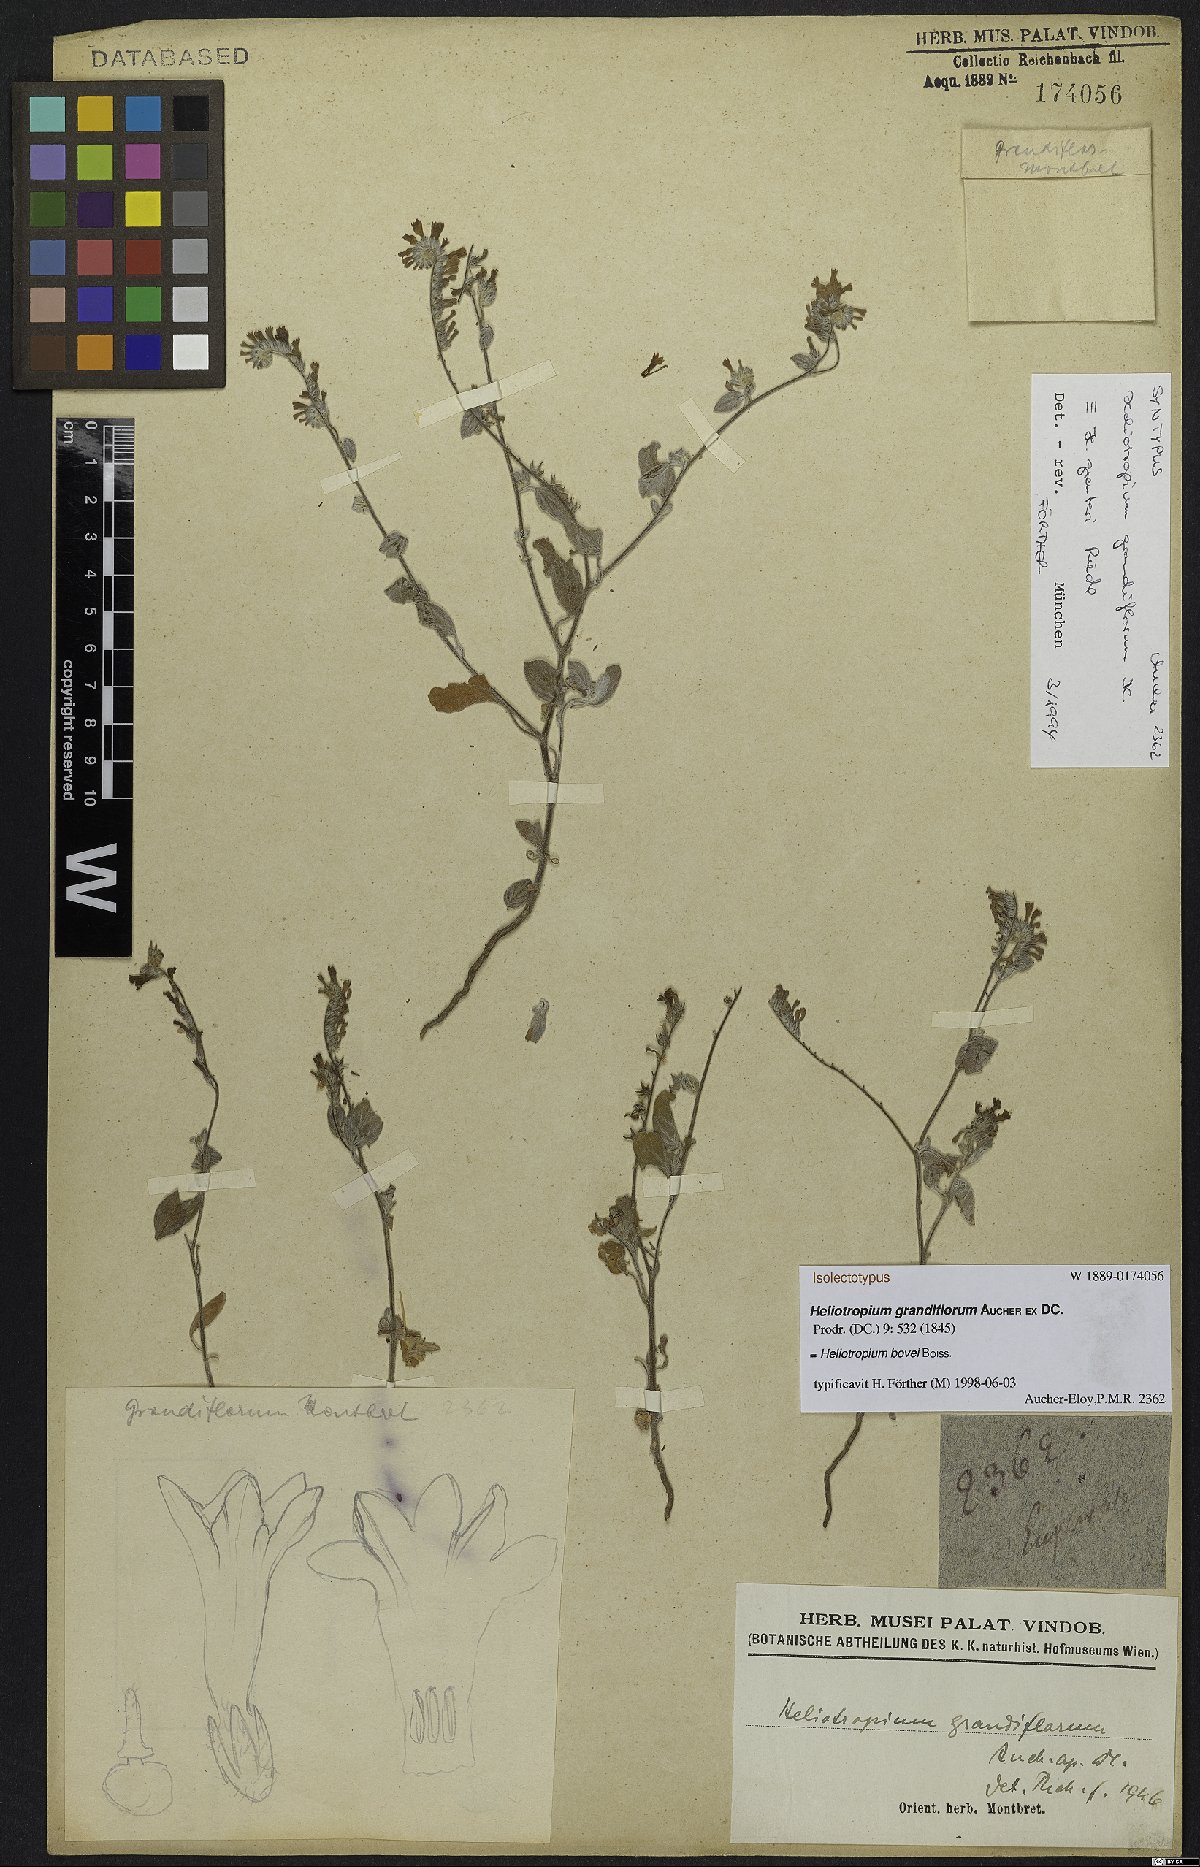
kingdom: Plantae
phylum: Tracheophyta
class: Magnoliopsida
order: Boraginales
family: Heliotropiaceae
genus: Heliotropium
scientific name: Heliotropium bovei
